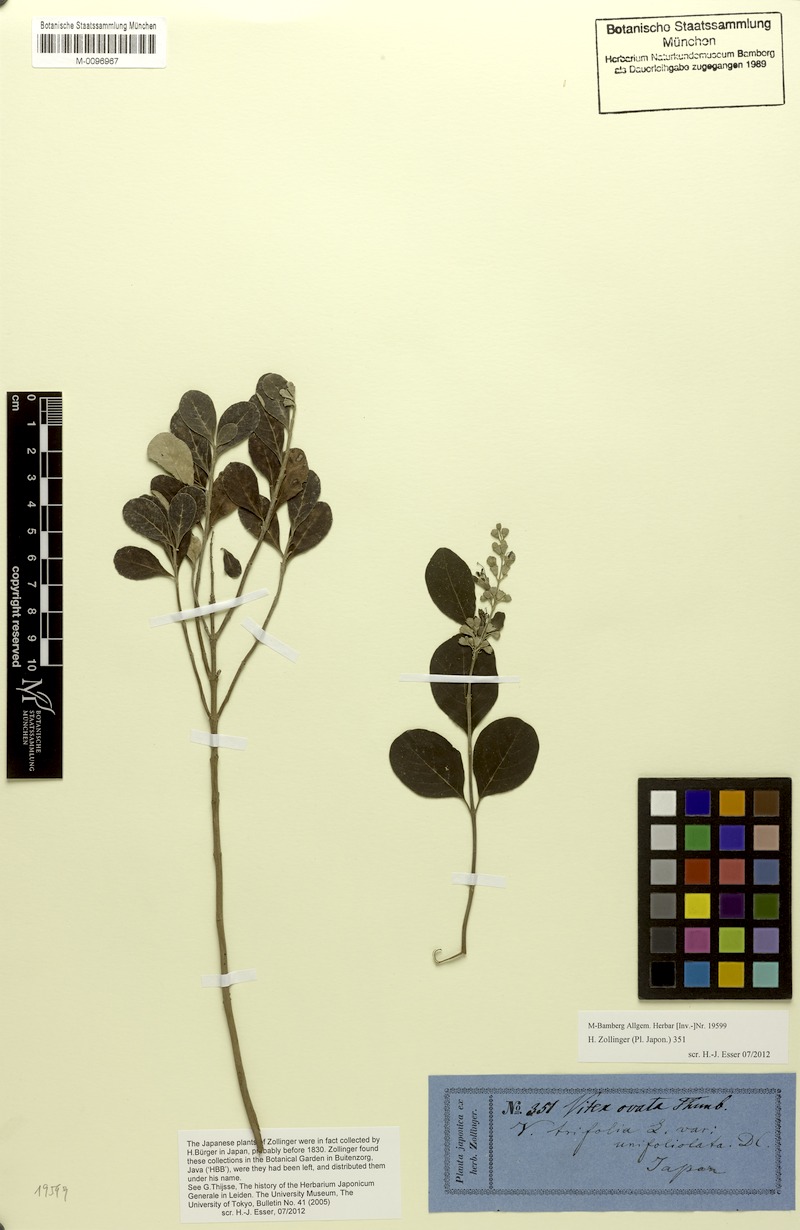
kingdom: Plantae
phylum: Tracheophyta
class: Magnoliopsida
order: Lamiales
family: Lamiaceae
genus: Vitex
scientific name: Vitex rotundifolia
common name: Beach vitex
